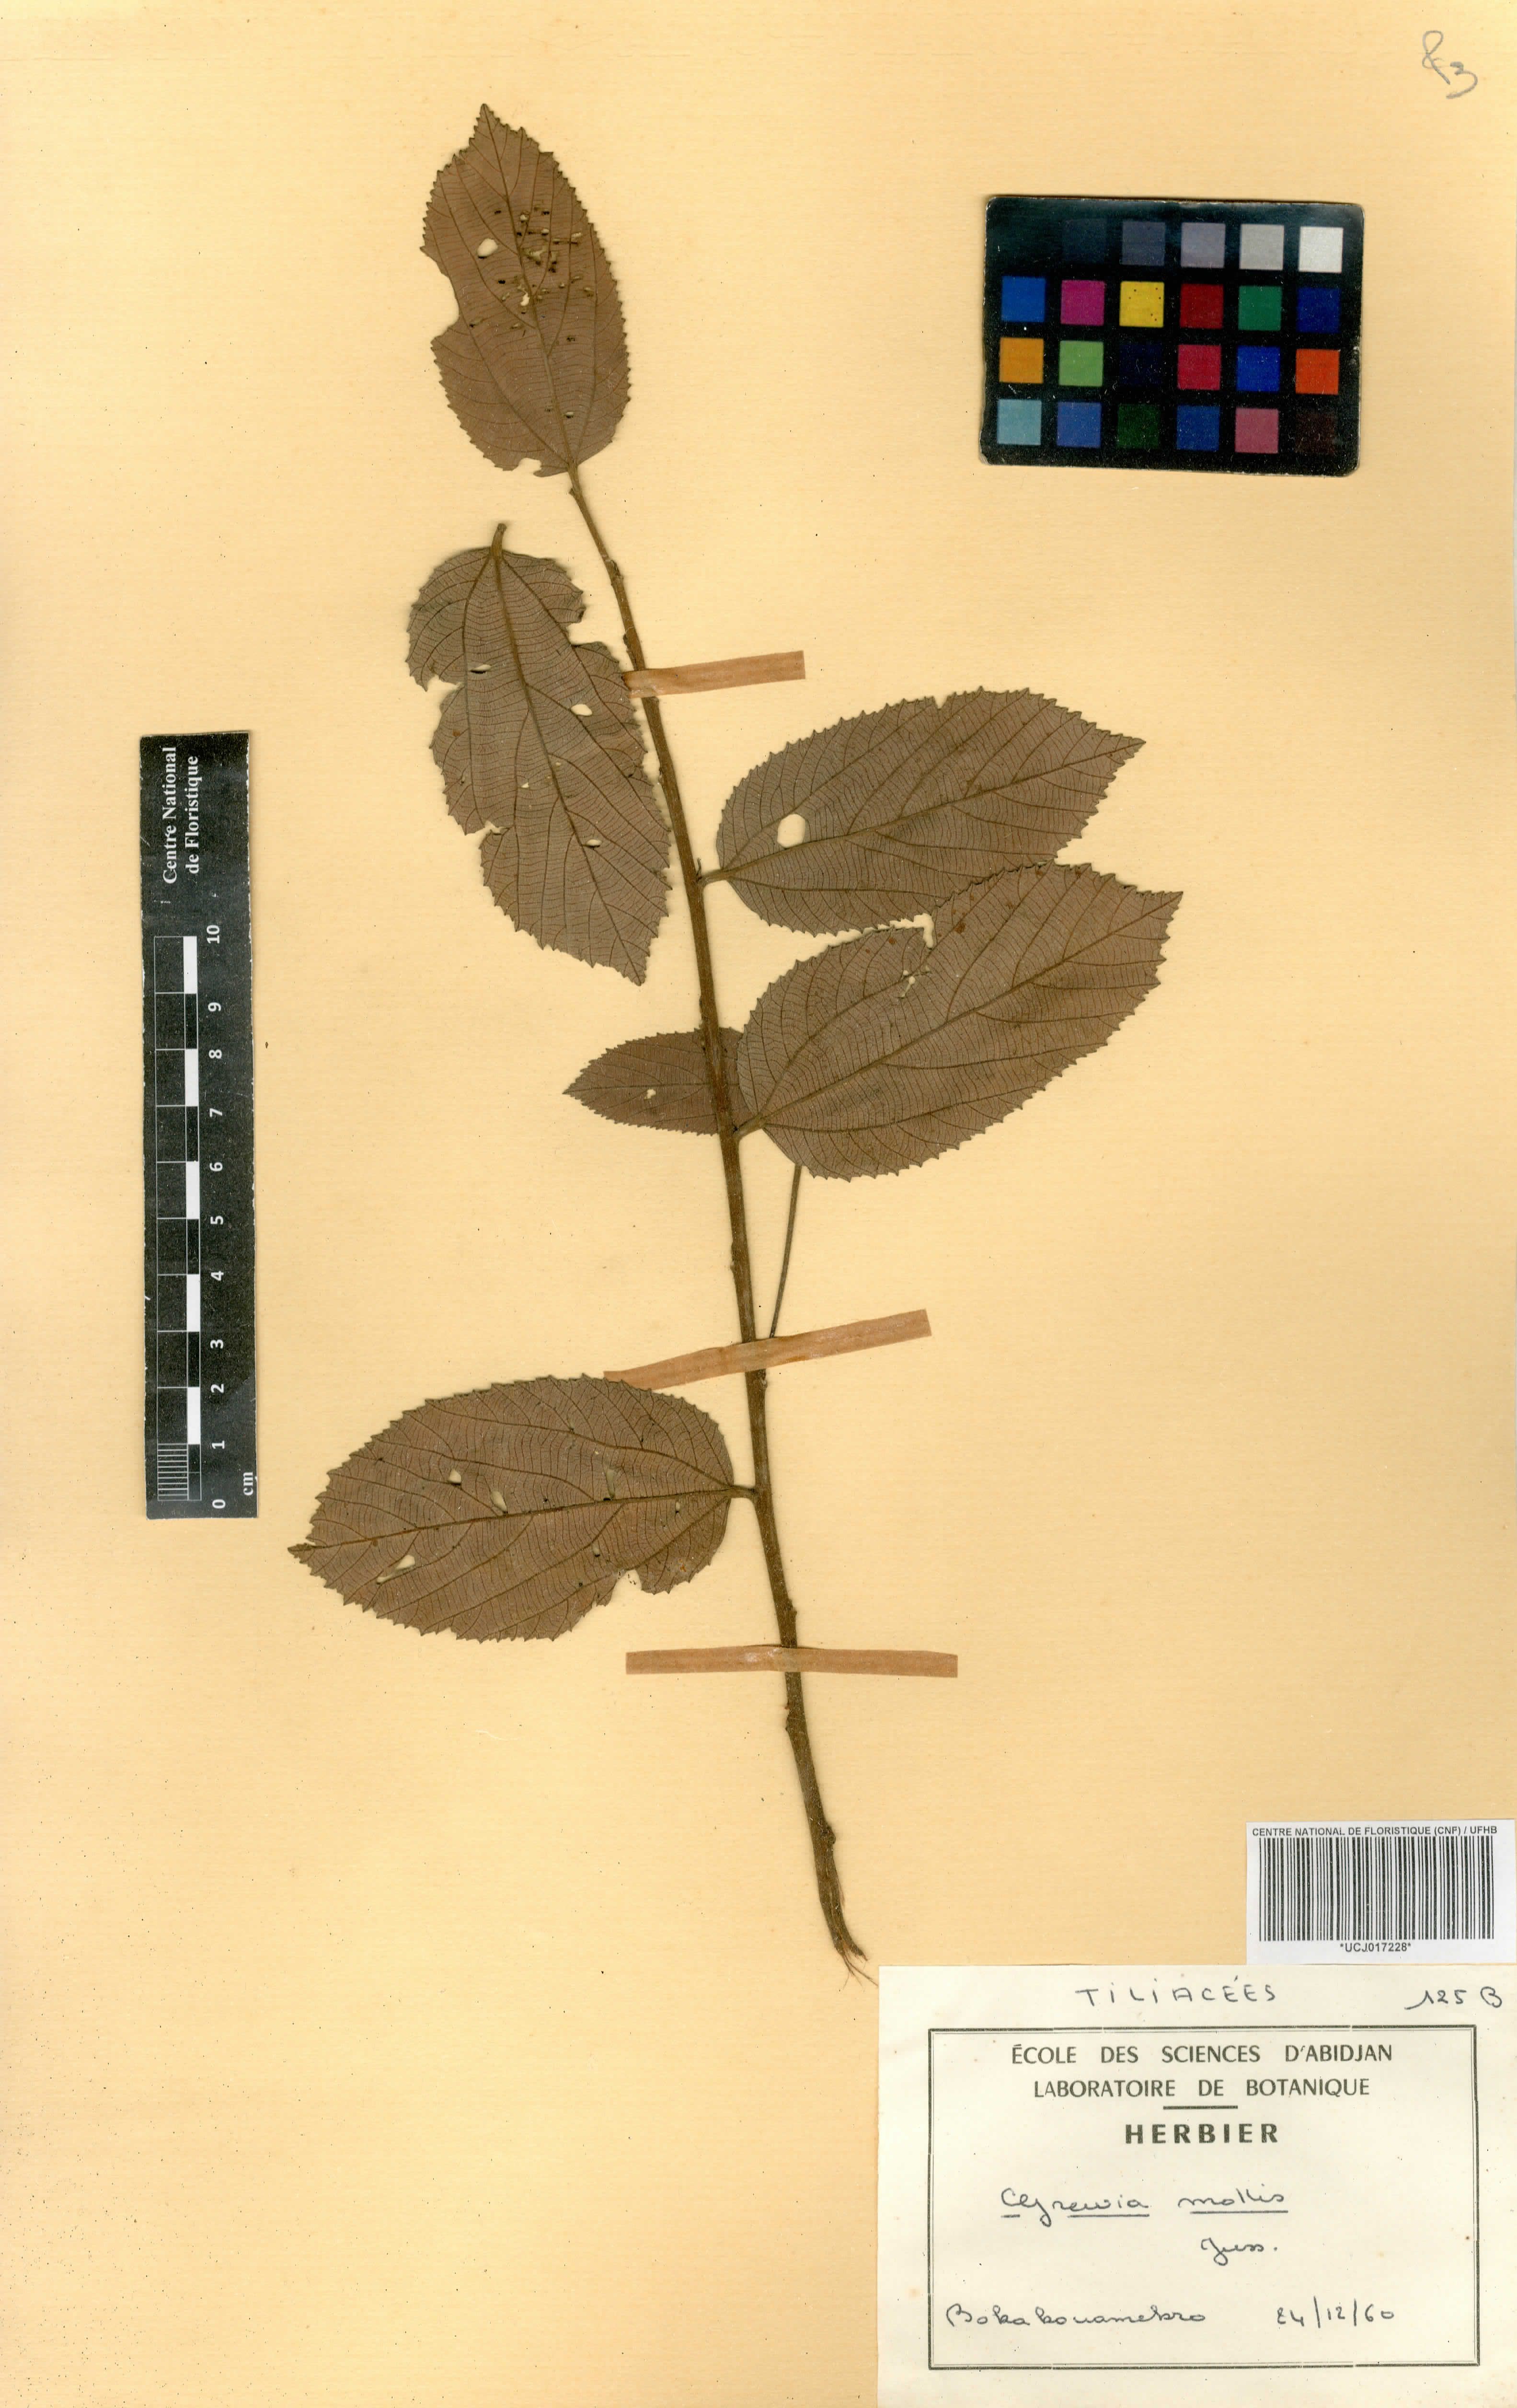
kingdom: Plantae
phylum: Tracheophyta
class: Magnoliopsida
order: Malvales
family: Malvaceae
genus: Grewia
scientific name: Grewia mollis
